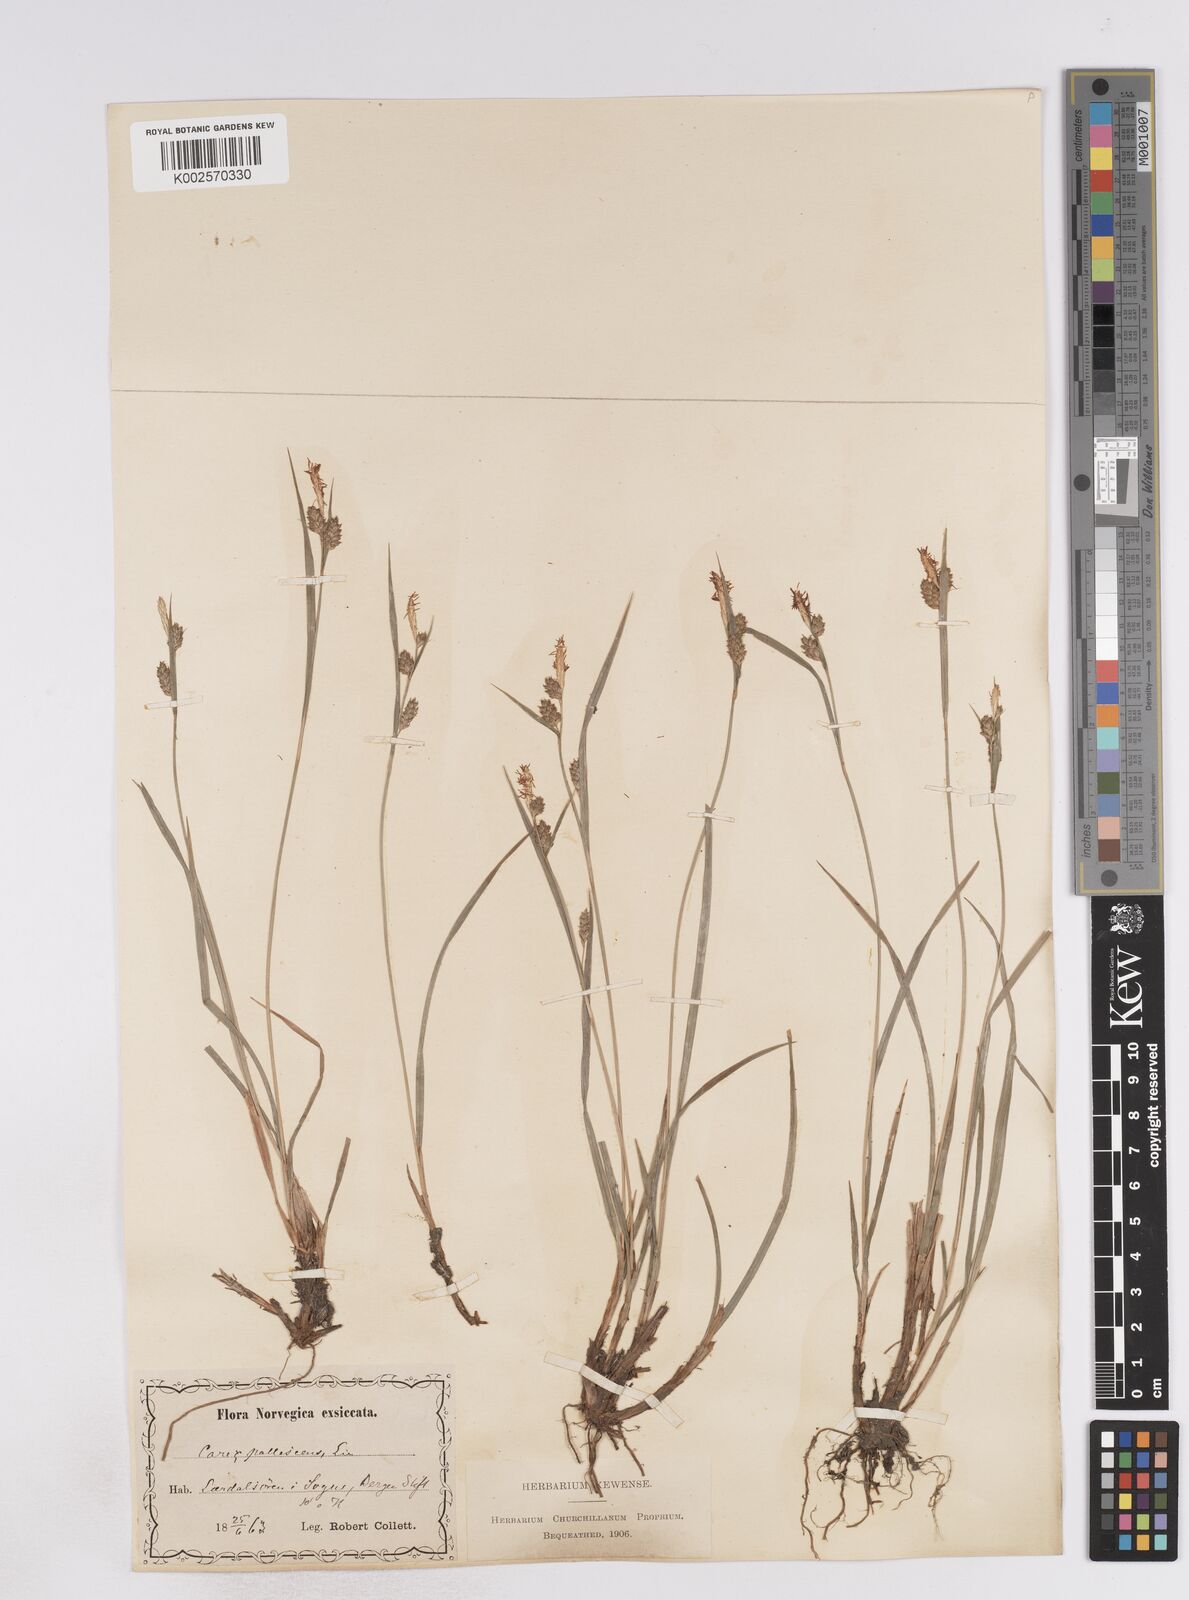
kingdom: Plantae
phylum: Tracheophyta
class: Liliopsida
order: Poales
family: Cyperaceae
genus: Carex
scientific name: Carex pallescens
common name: Pale sedge
